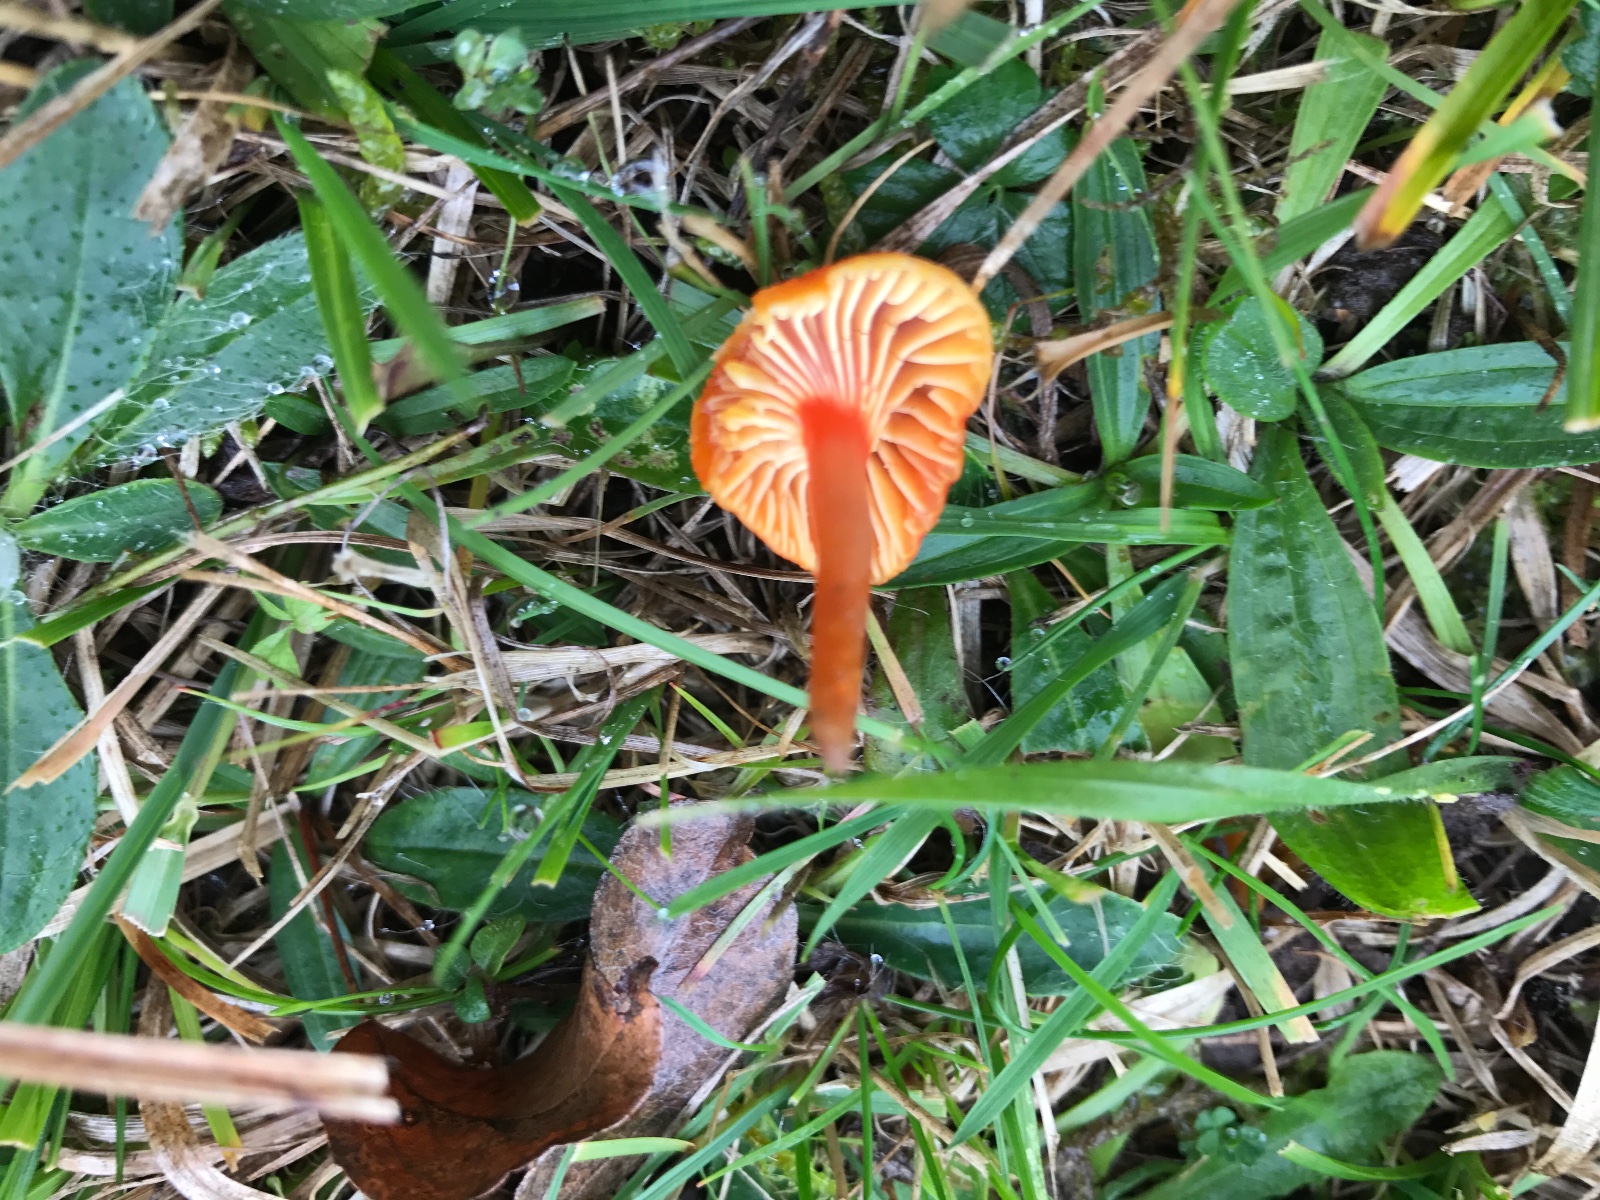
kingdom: Fungi
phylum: Basidiomycota
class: Agaricomycetes
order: Agaricales
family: Hygrophoraceae
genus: Hygrocybe
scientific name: Hygrocybe cantharellus
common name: kantarel-vokshat
